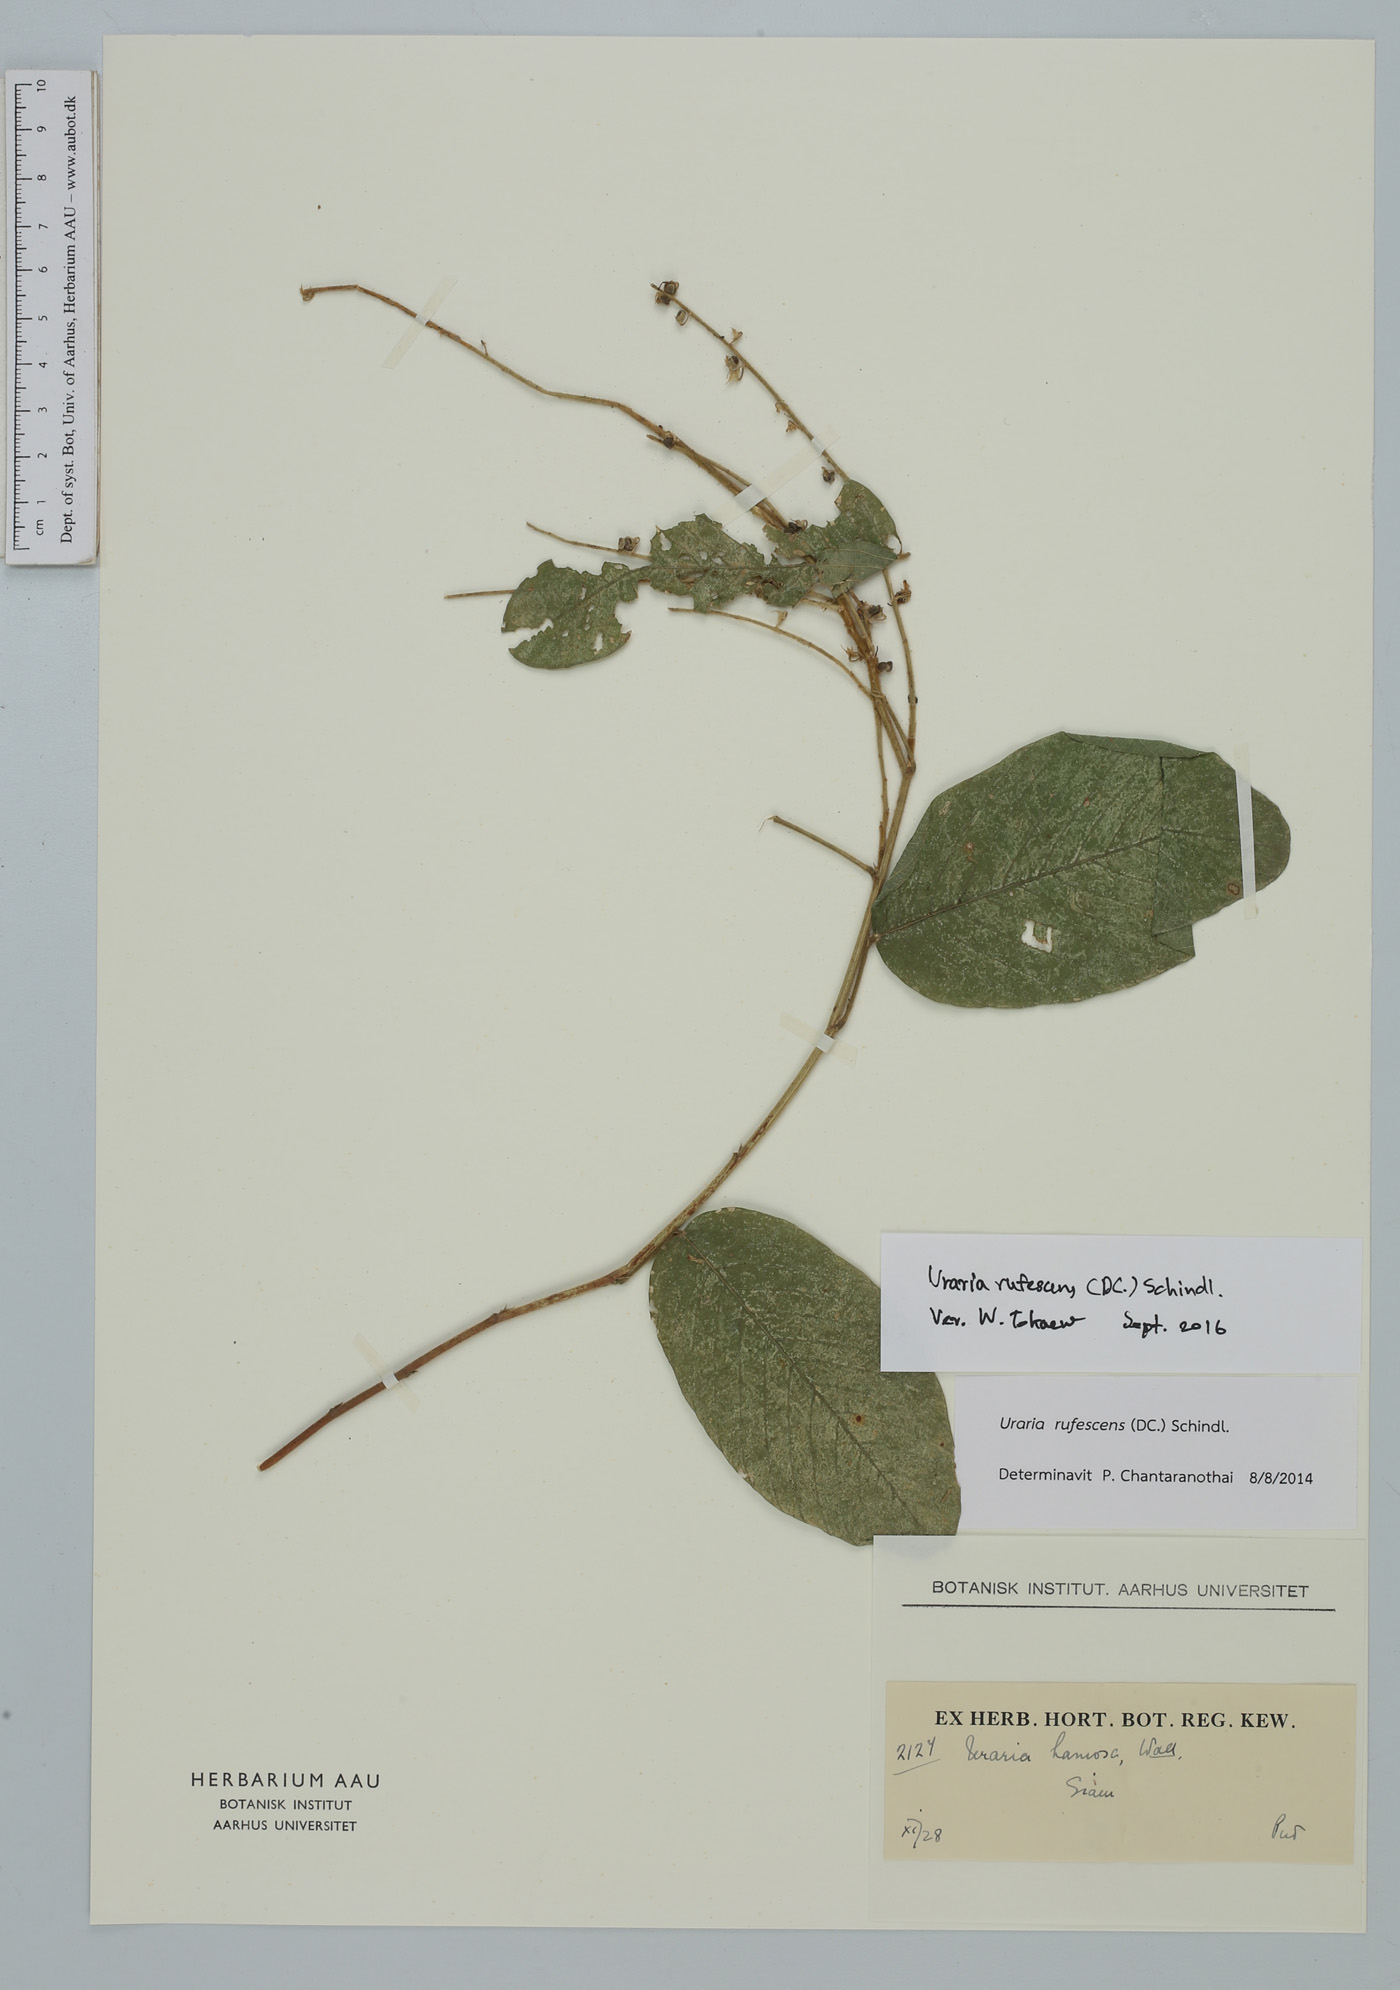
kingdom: Plantae
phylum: Tracheophyta
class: Magnoliopsida
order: Fabales
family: Fabaceae
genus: Uraria
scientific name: Uraria rufescens
